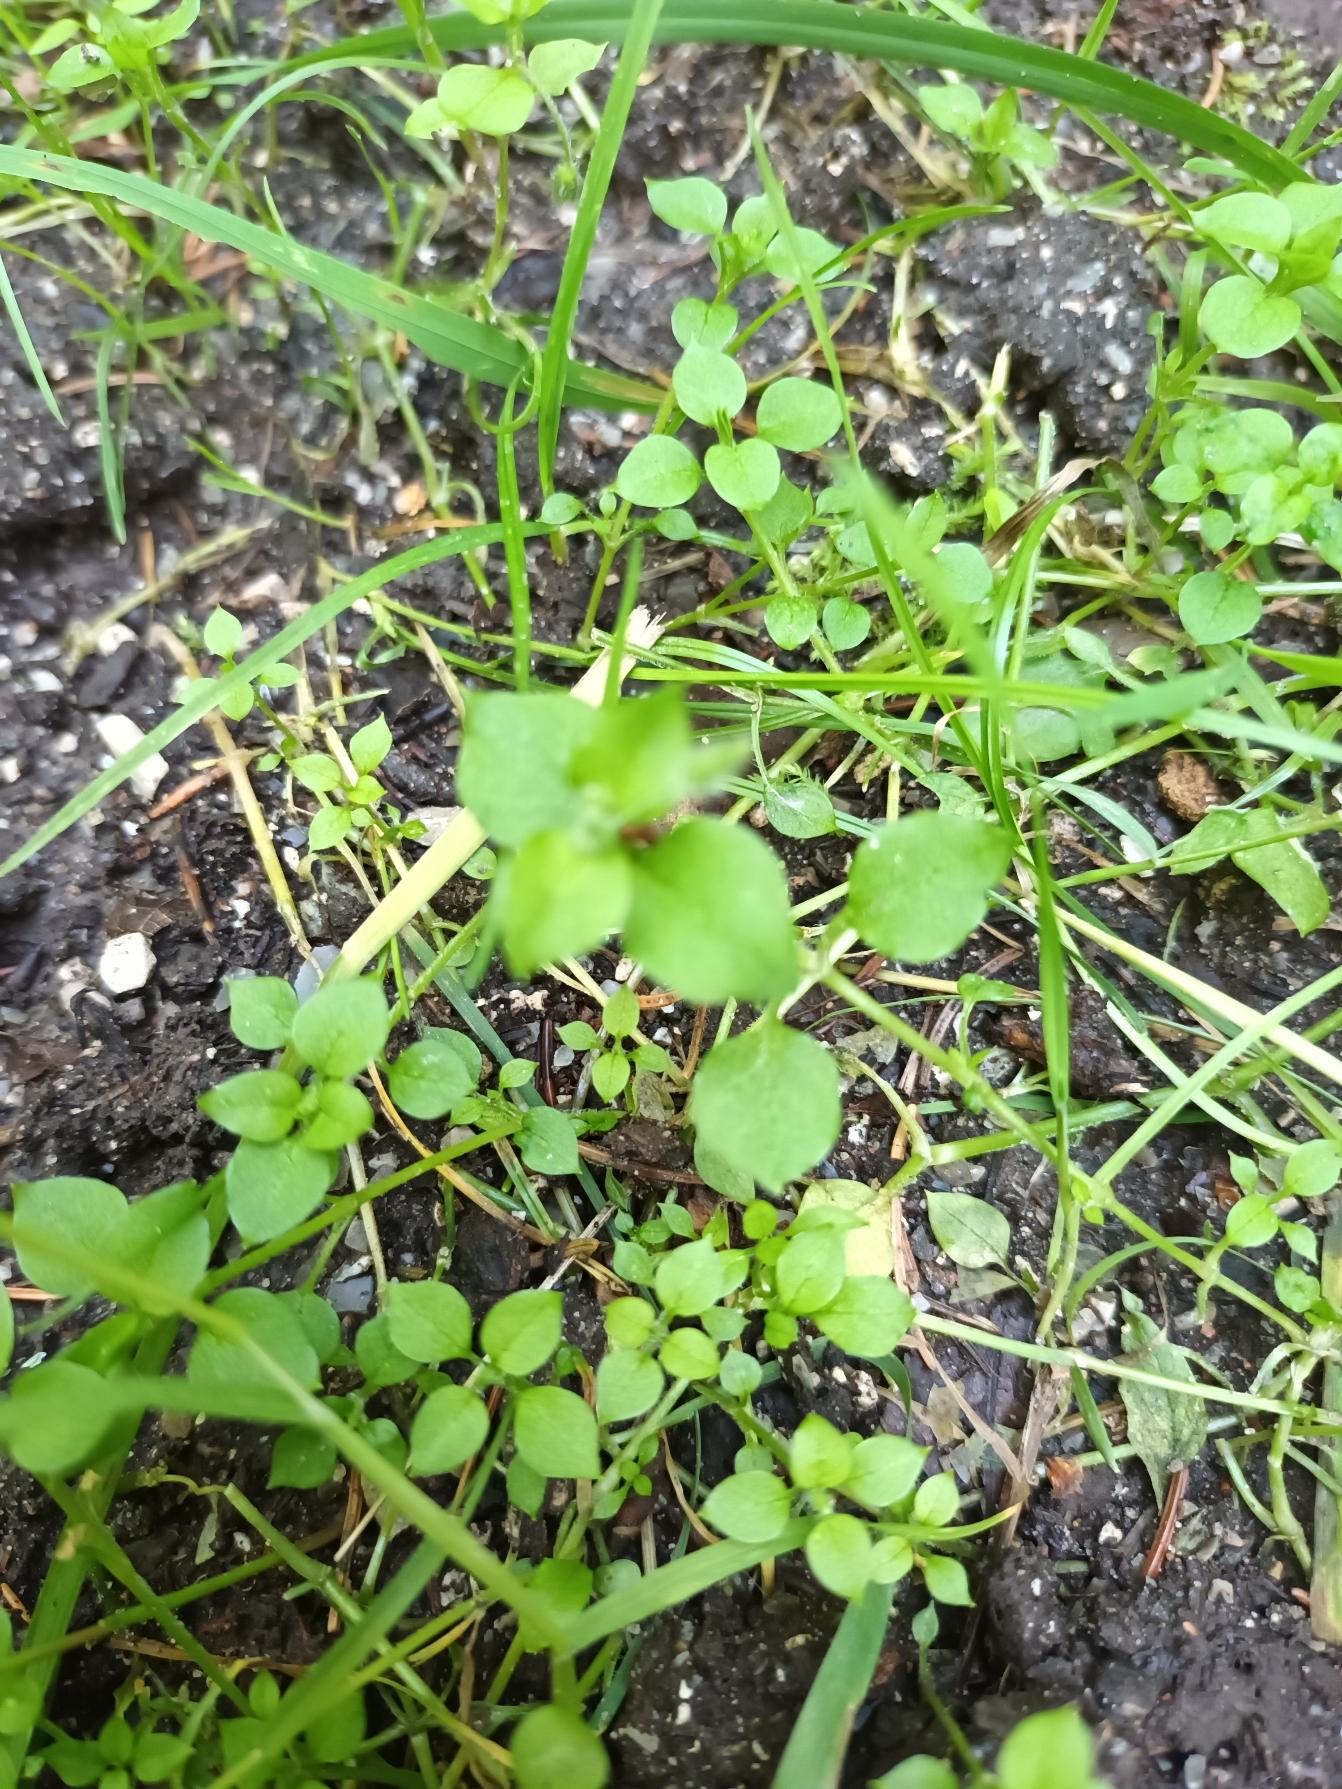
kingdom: Plantae
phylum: Tracheophyta
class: Magnoliopsida
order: Caryophyllales
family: Caryophyllaceae
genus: Stellaria
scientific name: Stellaria media
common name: Almindelig fuglegræs
